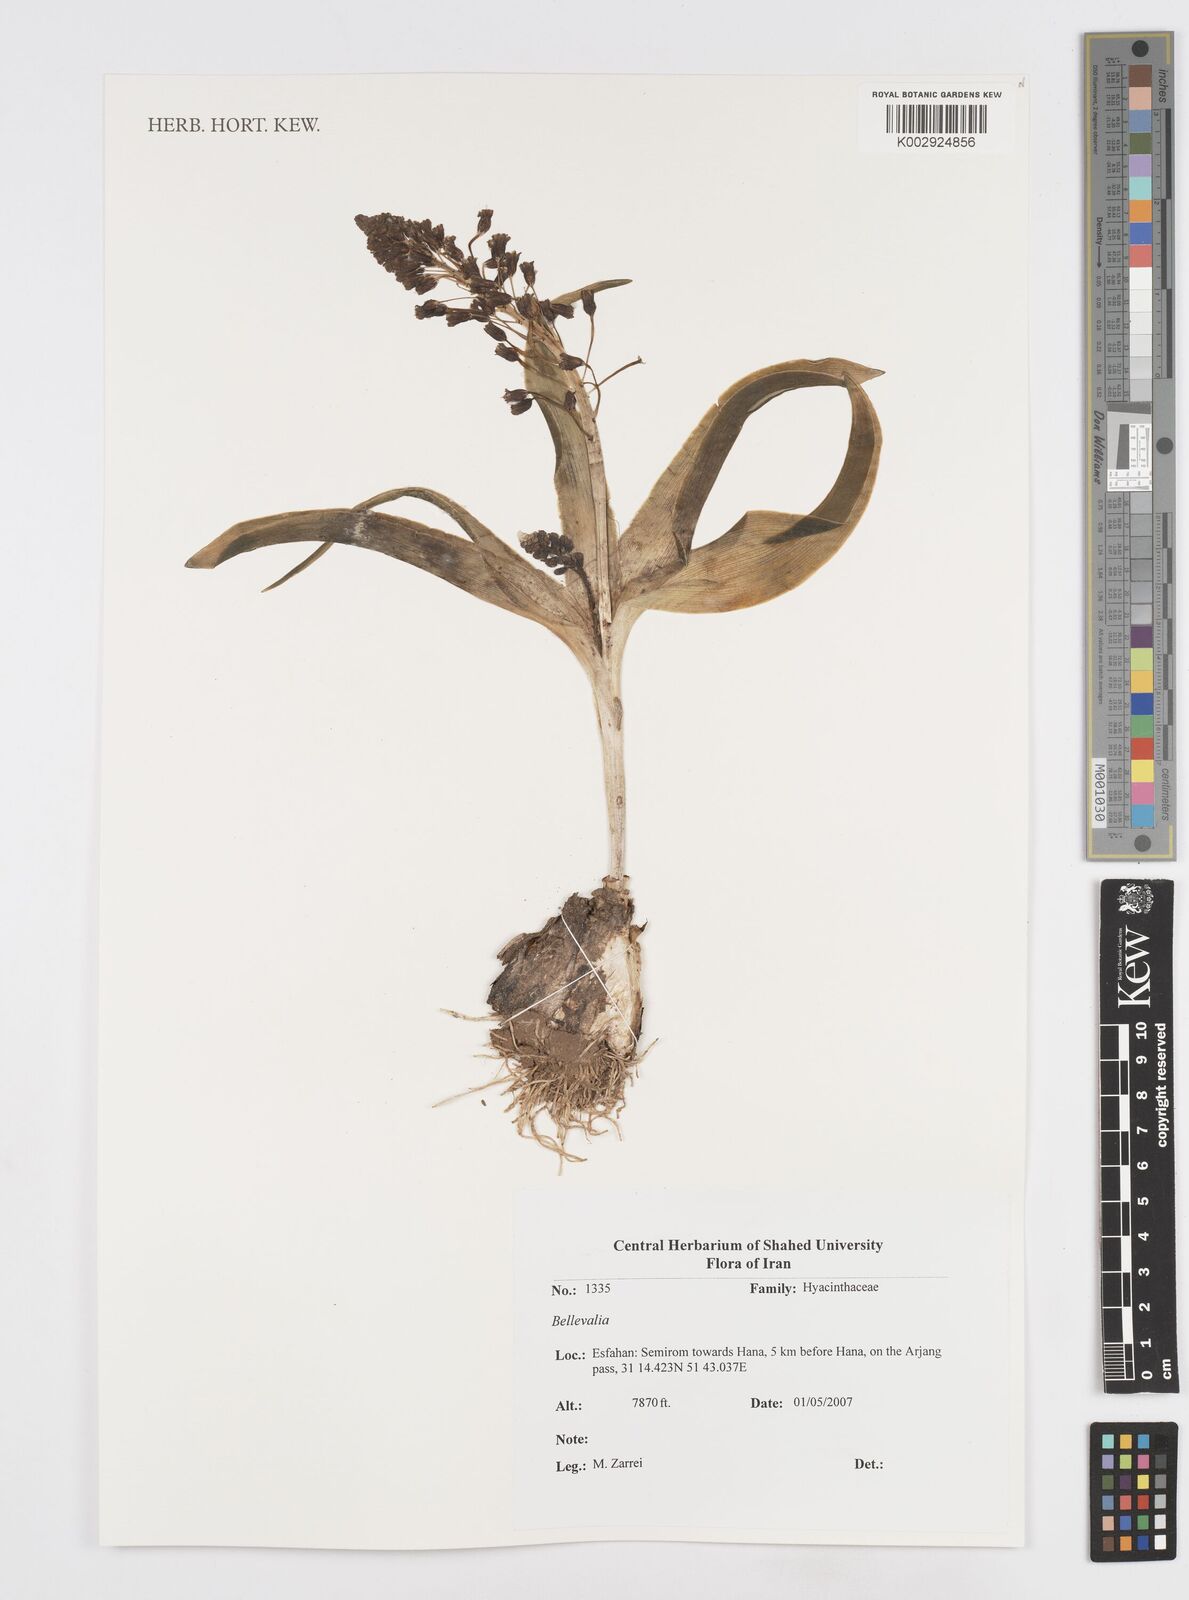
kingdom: Plantae
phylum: Tracheophyta
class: Liliopsida
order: Asparagales
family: Asparagaceae
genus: Bellevalia
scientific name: Bellevalia
